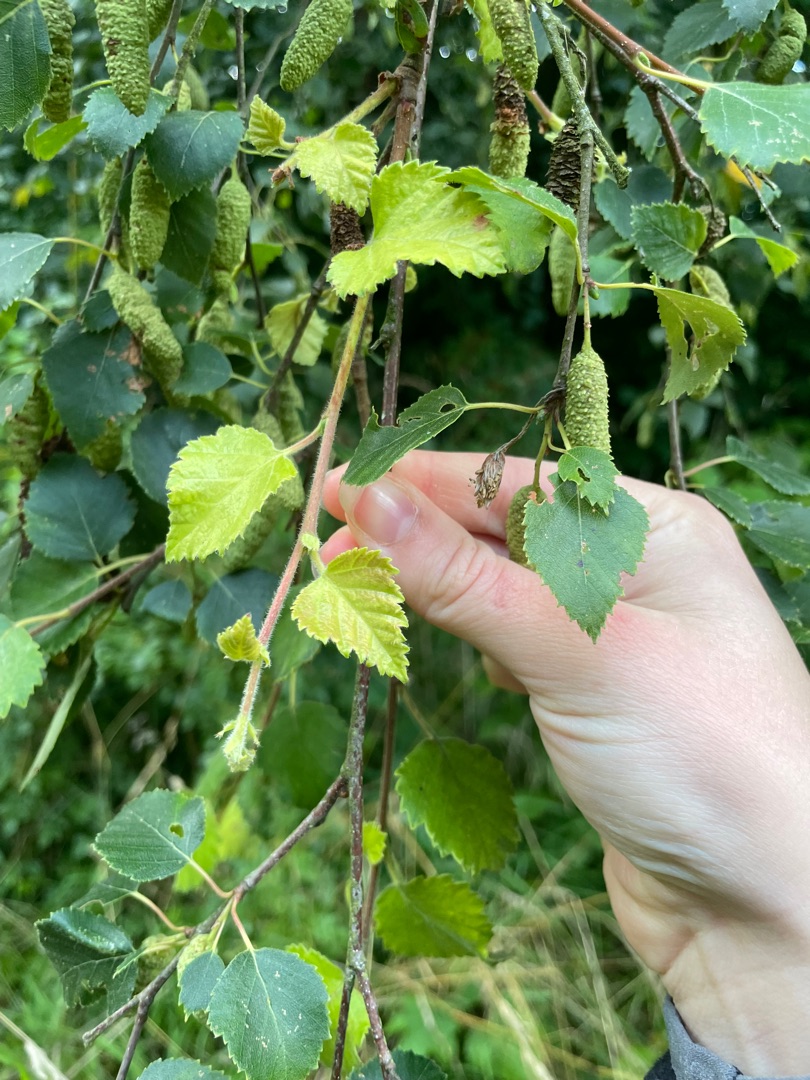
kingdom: Plantae
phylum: Tracheophyta
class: Magnoliopsida
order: Fagales
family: Betulaceae
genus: Betula
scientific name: Betula pubescens
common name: Dun-birk
